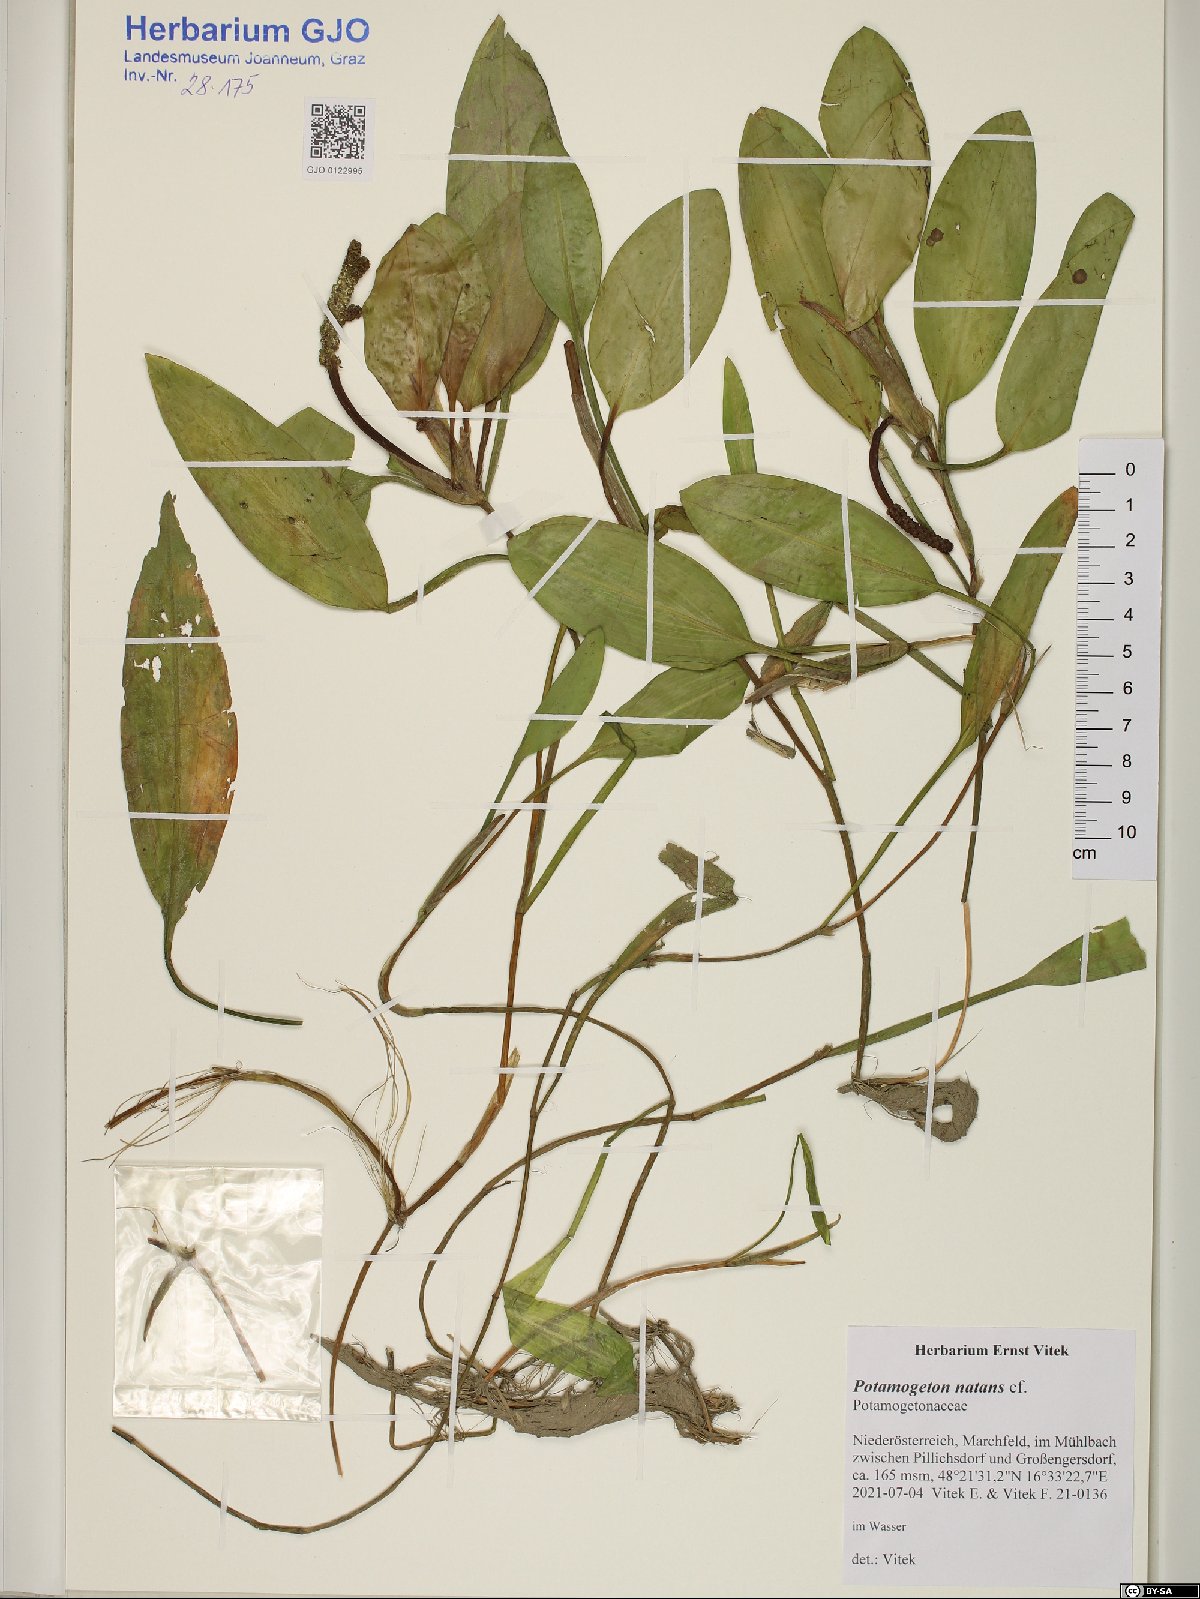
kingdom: Plantae
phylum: Tracheophyta
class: Liliopsida
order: Alismatales
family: Potamogetonaceae
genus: Potamogeton
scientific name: Potamogeton natans
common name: Broad-leaved pondweed
